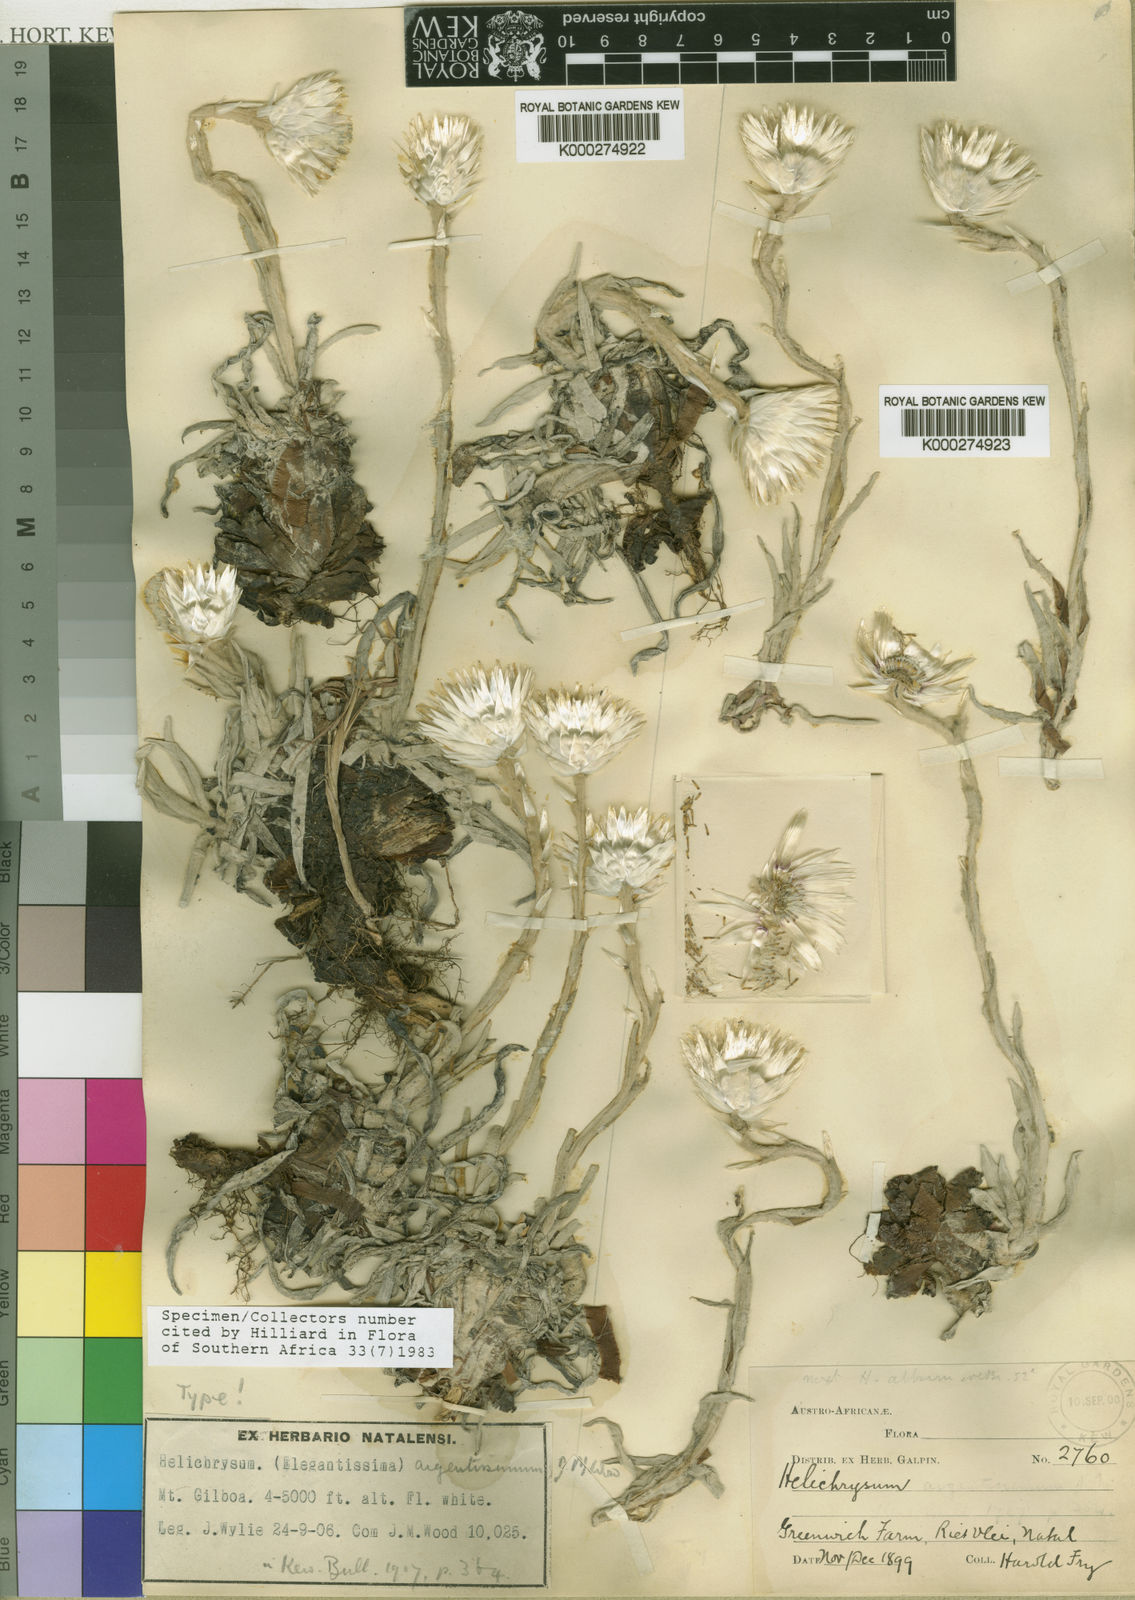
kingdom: Plantae
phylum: Tracheophyta
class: Magnoliopsida
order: Asterales
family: Asteraceae
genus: Helichrysum
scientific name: Helichrysum argentissimum
